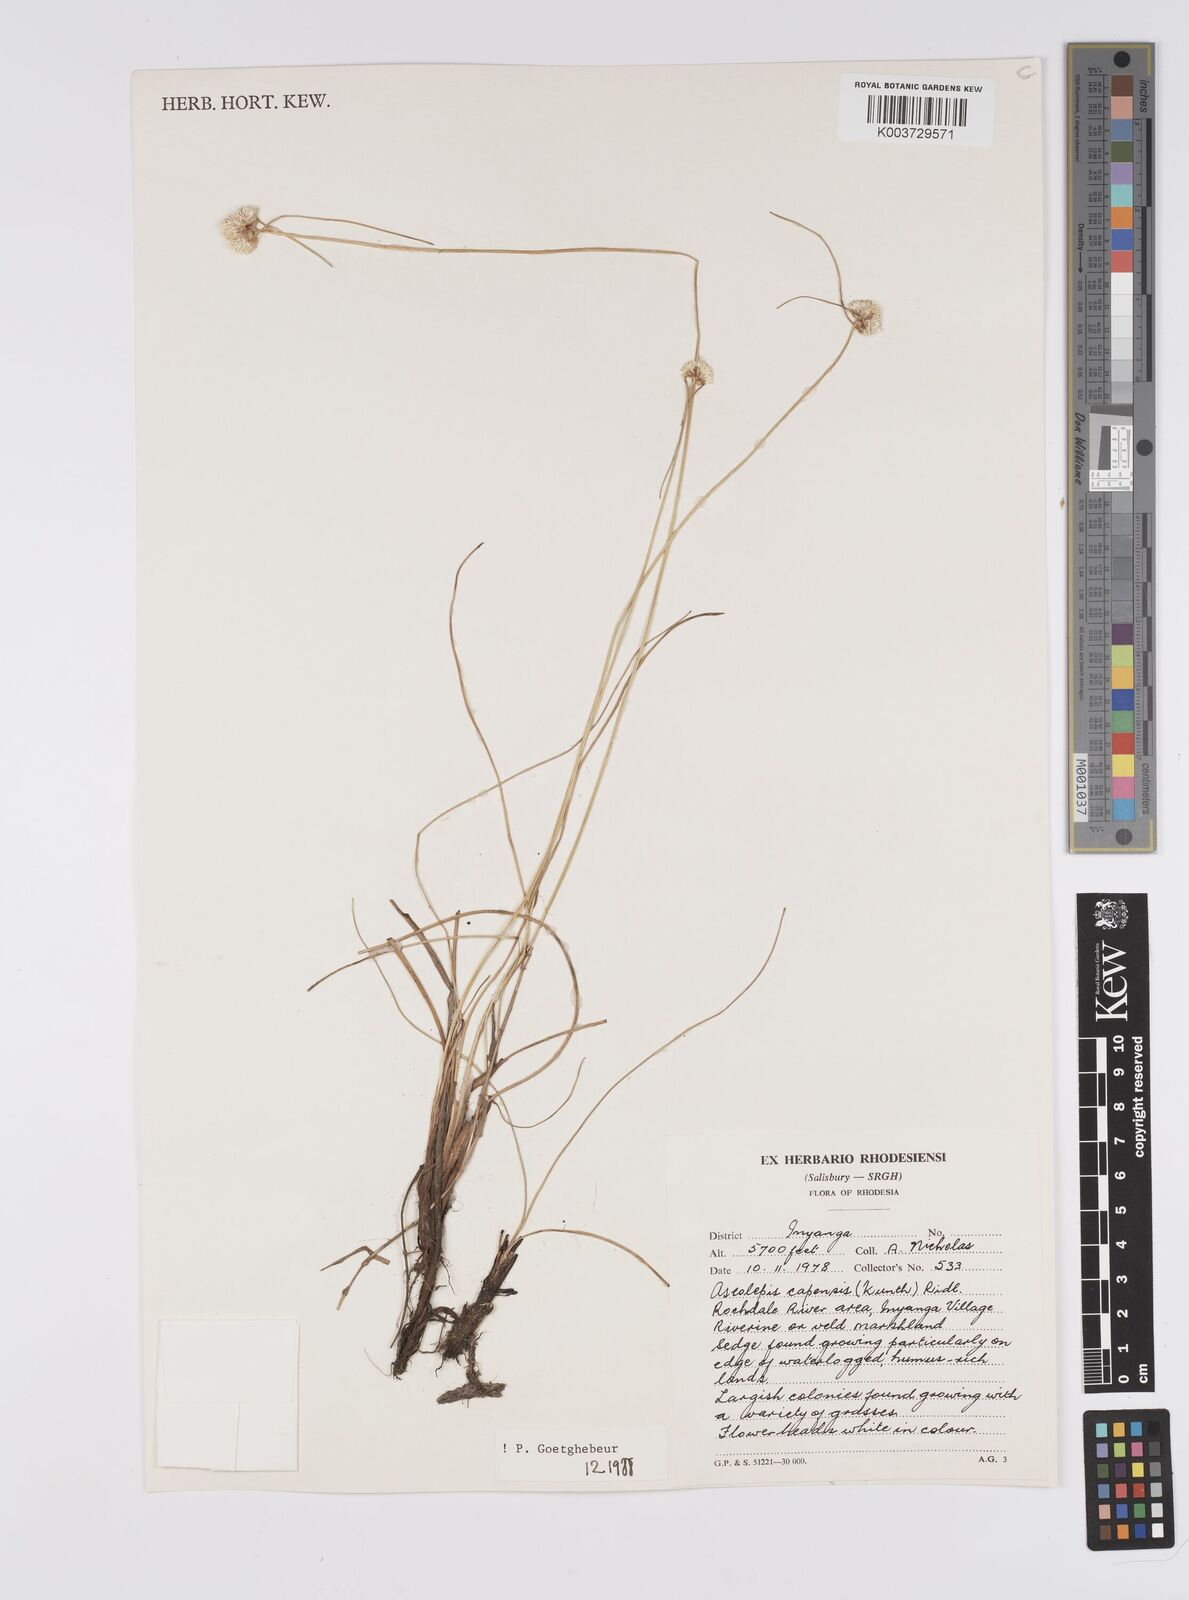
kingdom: Plantae
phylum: Tracheophyta
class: Liliopsida
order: Poales
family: Cyperaceae
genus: Cyperus
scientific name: Cyperus
